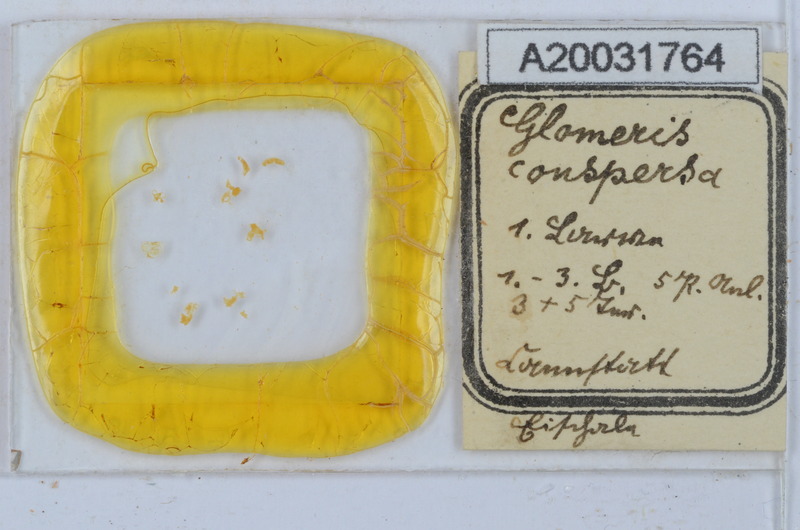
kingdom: Animalia
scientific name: Animalia
